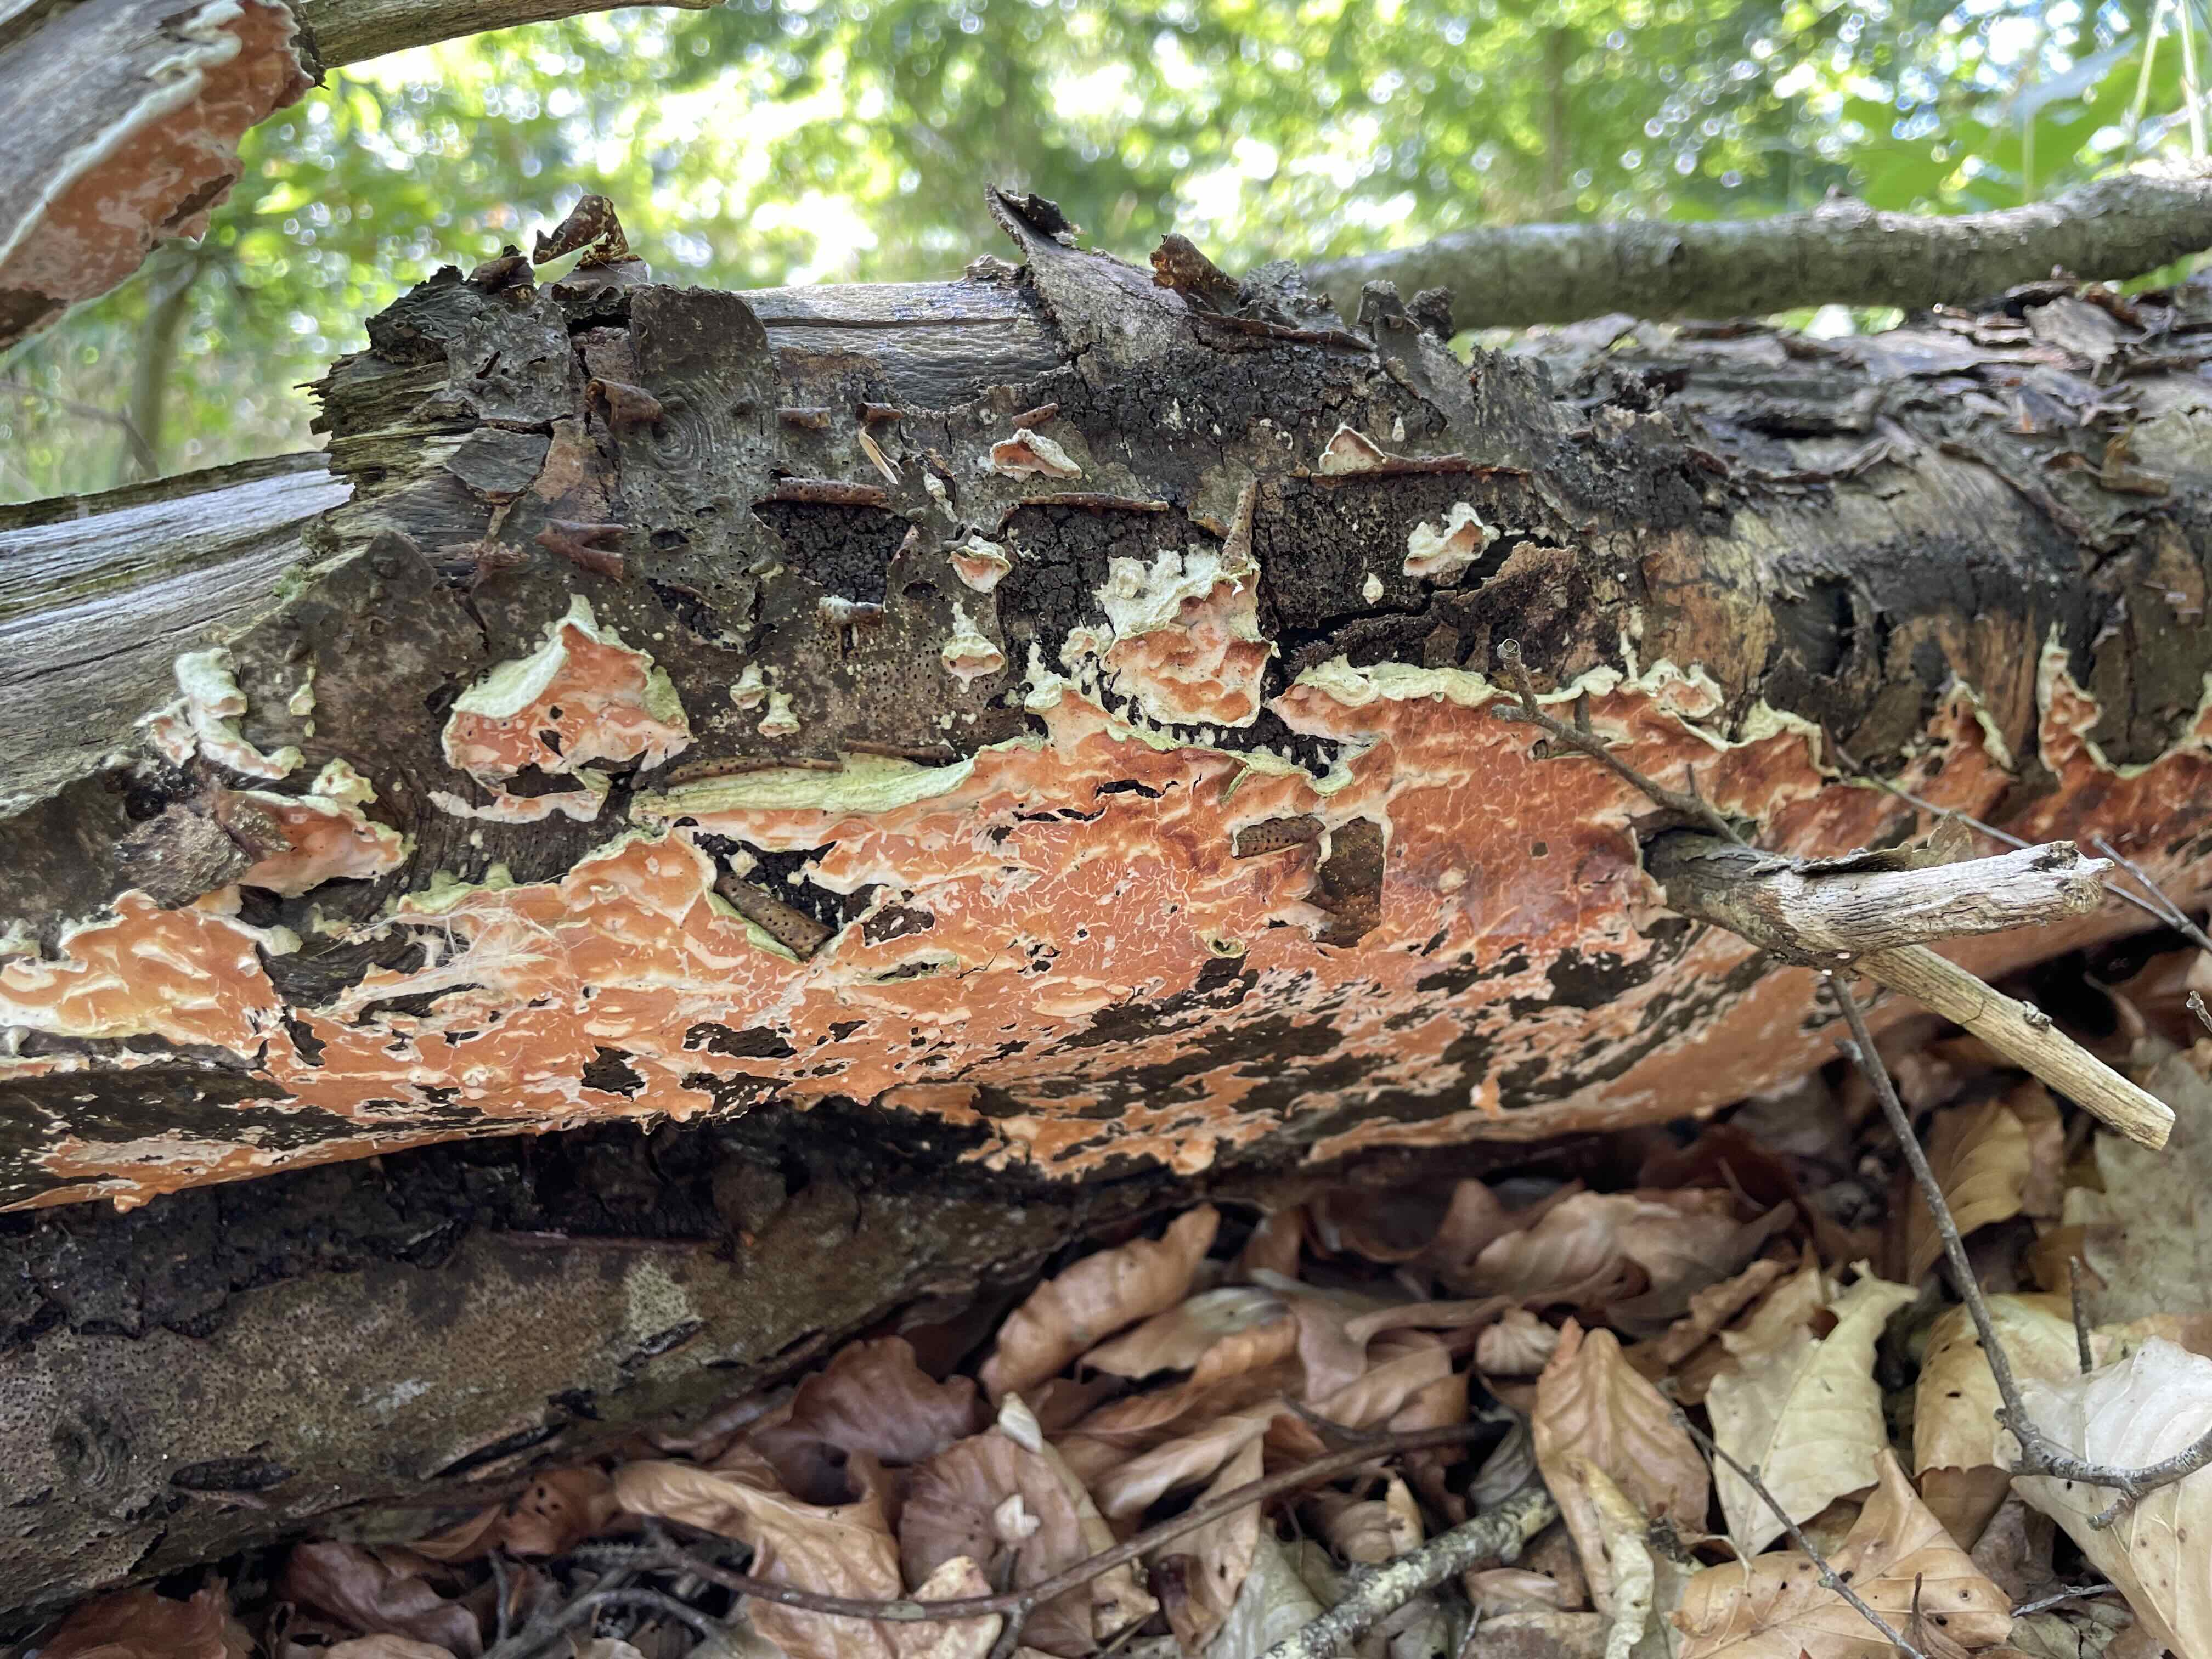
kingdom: Fungi
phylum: Basidiomycota
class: Agaricomycetes
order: Russulales
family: Peniophoraceae
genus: Peniophora
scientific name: Peniophora incarnata
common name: laksefarvet voksskind
